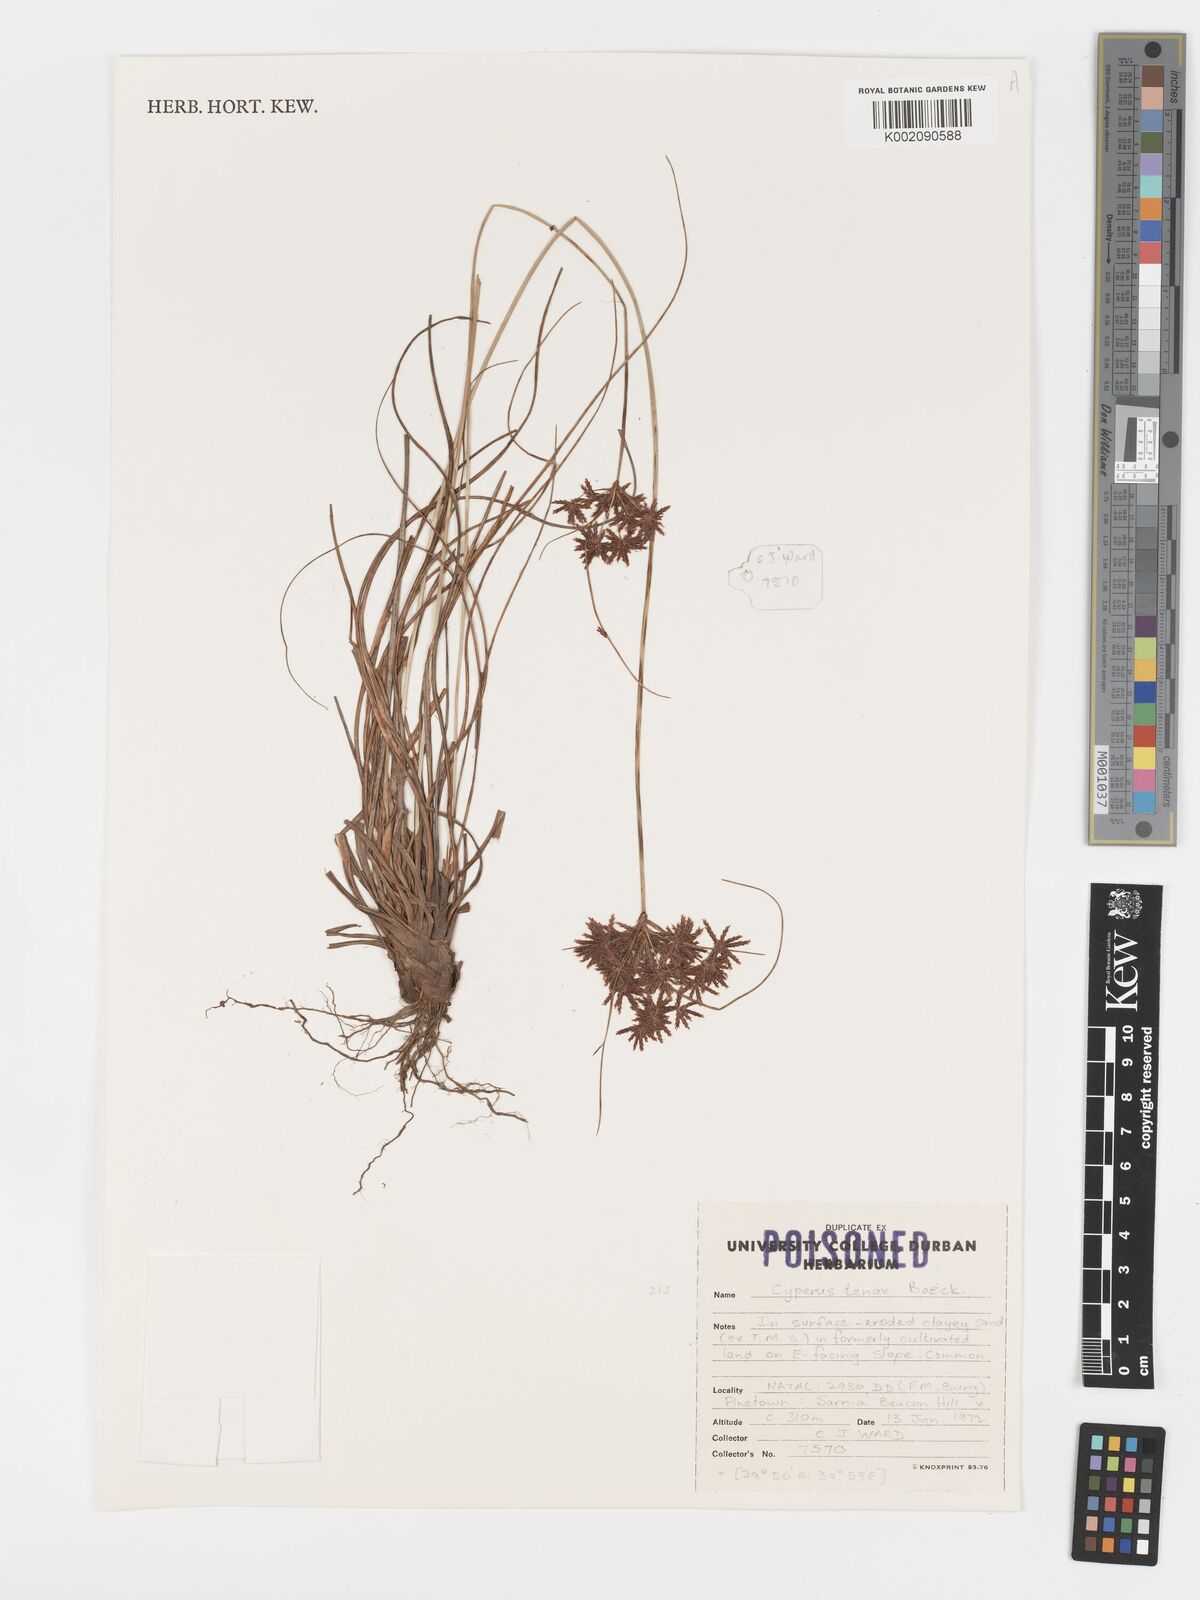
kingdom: Plantae
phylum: Tracheophyta
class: Liliopsida
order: Poales
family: Cyperaceae
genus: Cyperus
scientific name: Cyperus tenax
